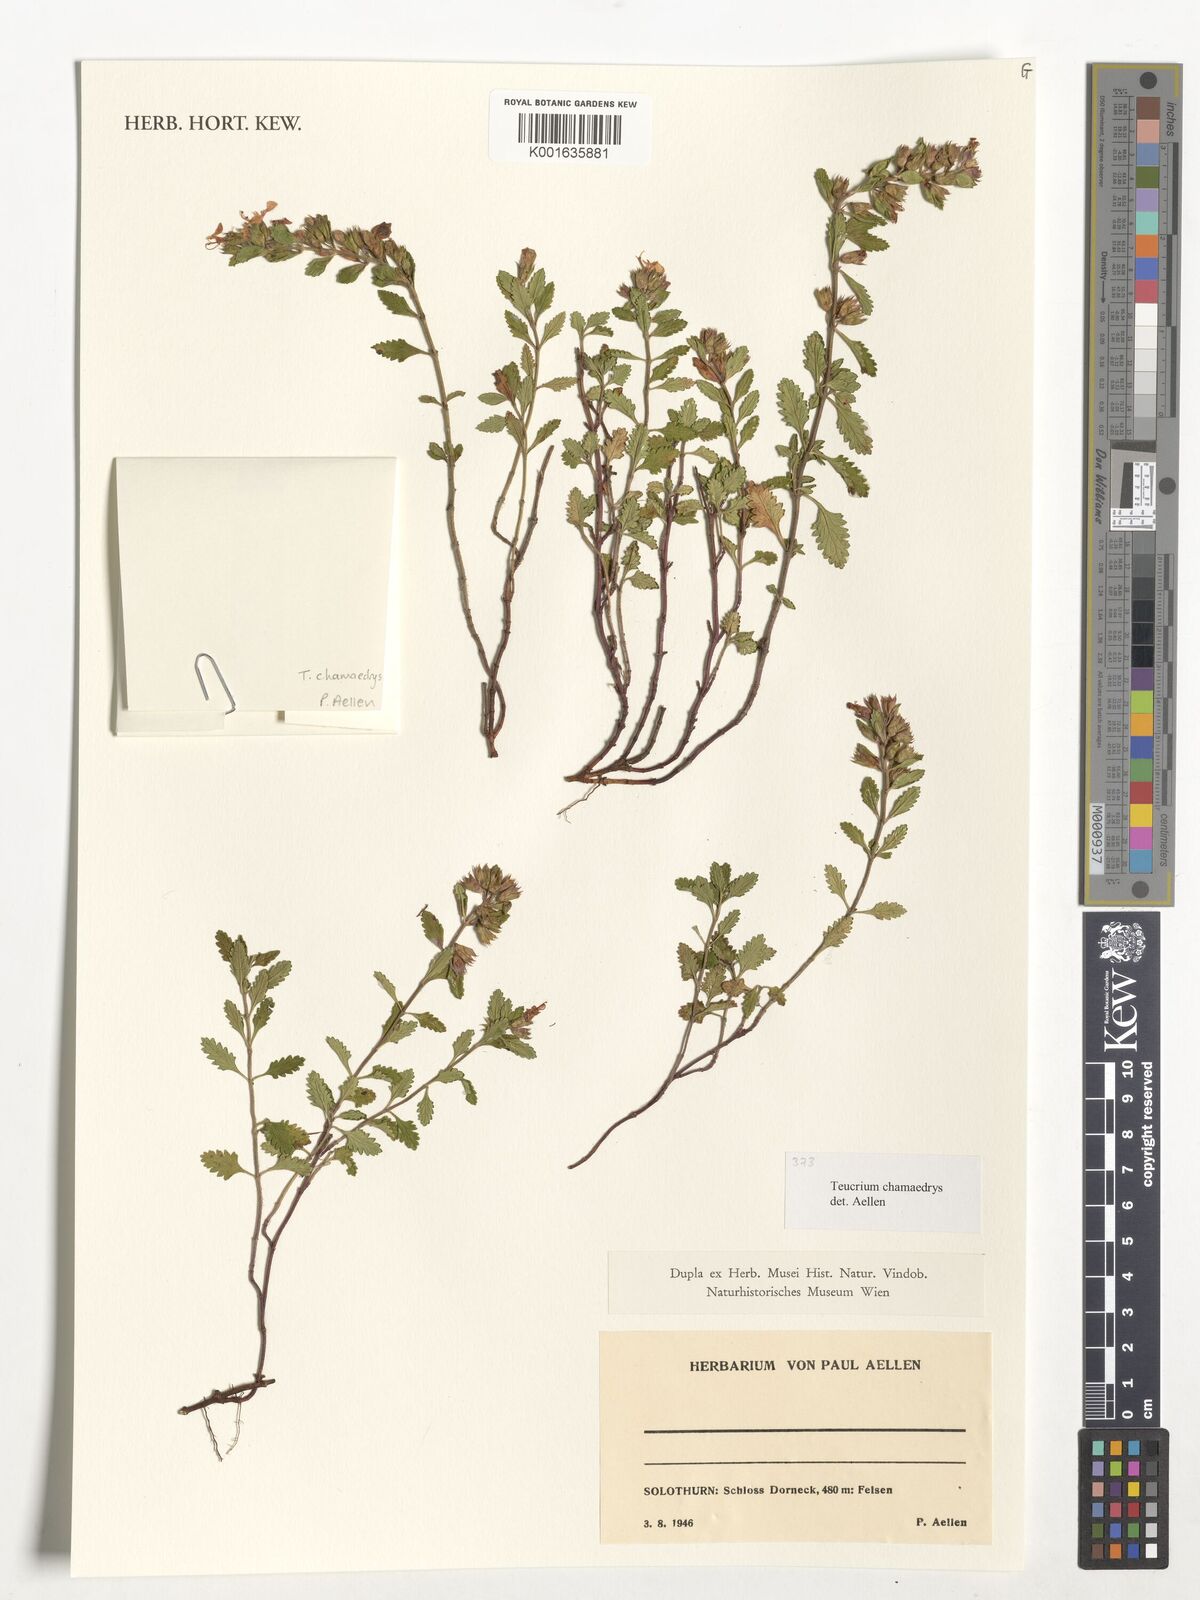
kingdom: Plantae
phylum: Tracheophyta
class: Magnoliopsida
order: Lamiales
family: Lamiaceae
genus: Teucrium
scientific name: Teucrium chamaedrys
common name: Wall germander
